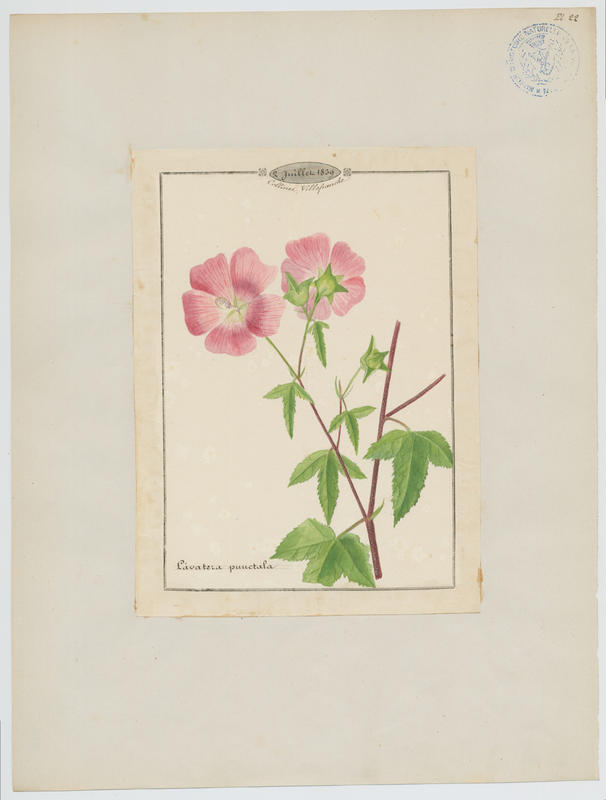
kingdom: Plantae
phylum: Tracheophyta
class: Magnoliopsida
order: Malvales
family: Malvaceae
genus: Malva
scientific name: Malva punctata
